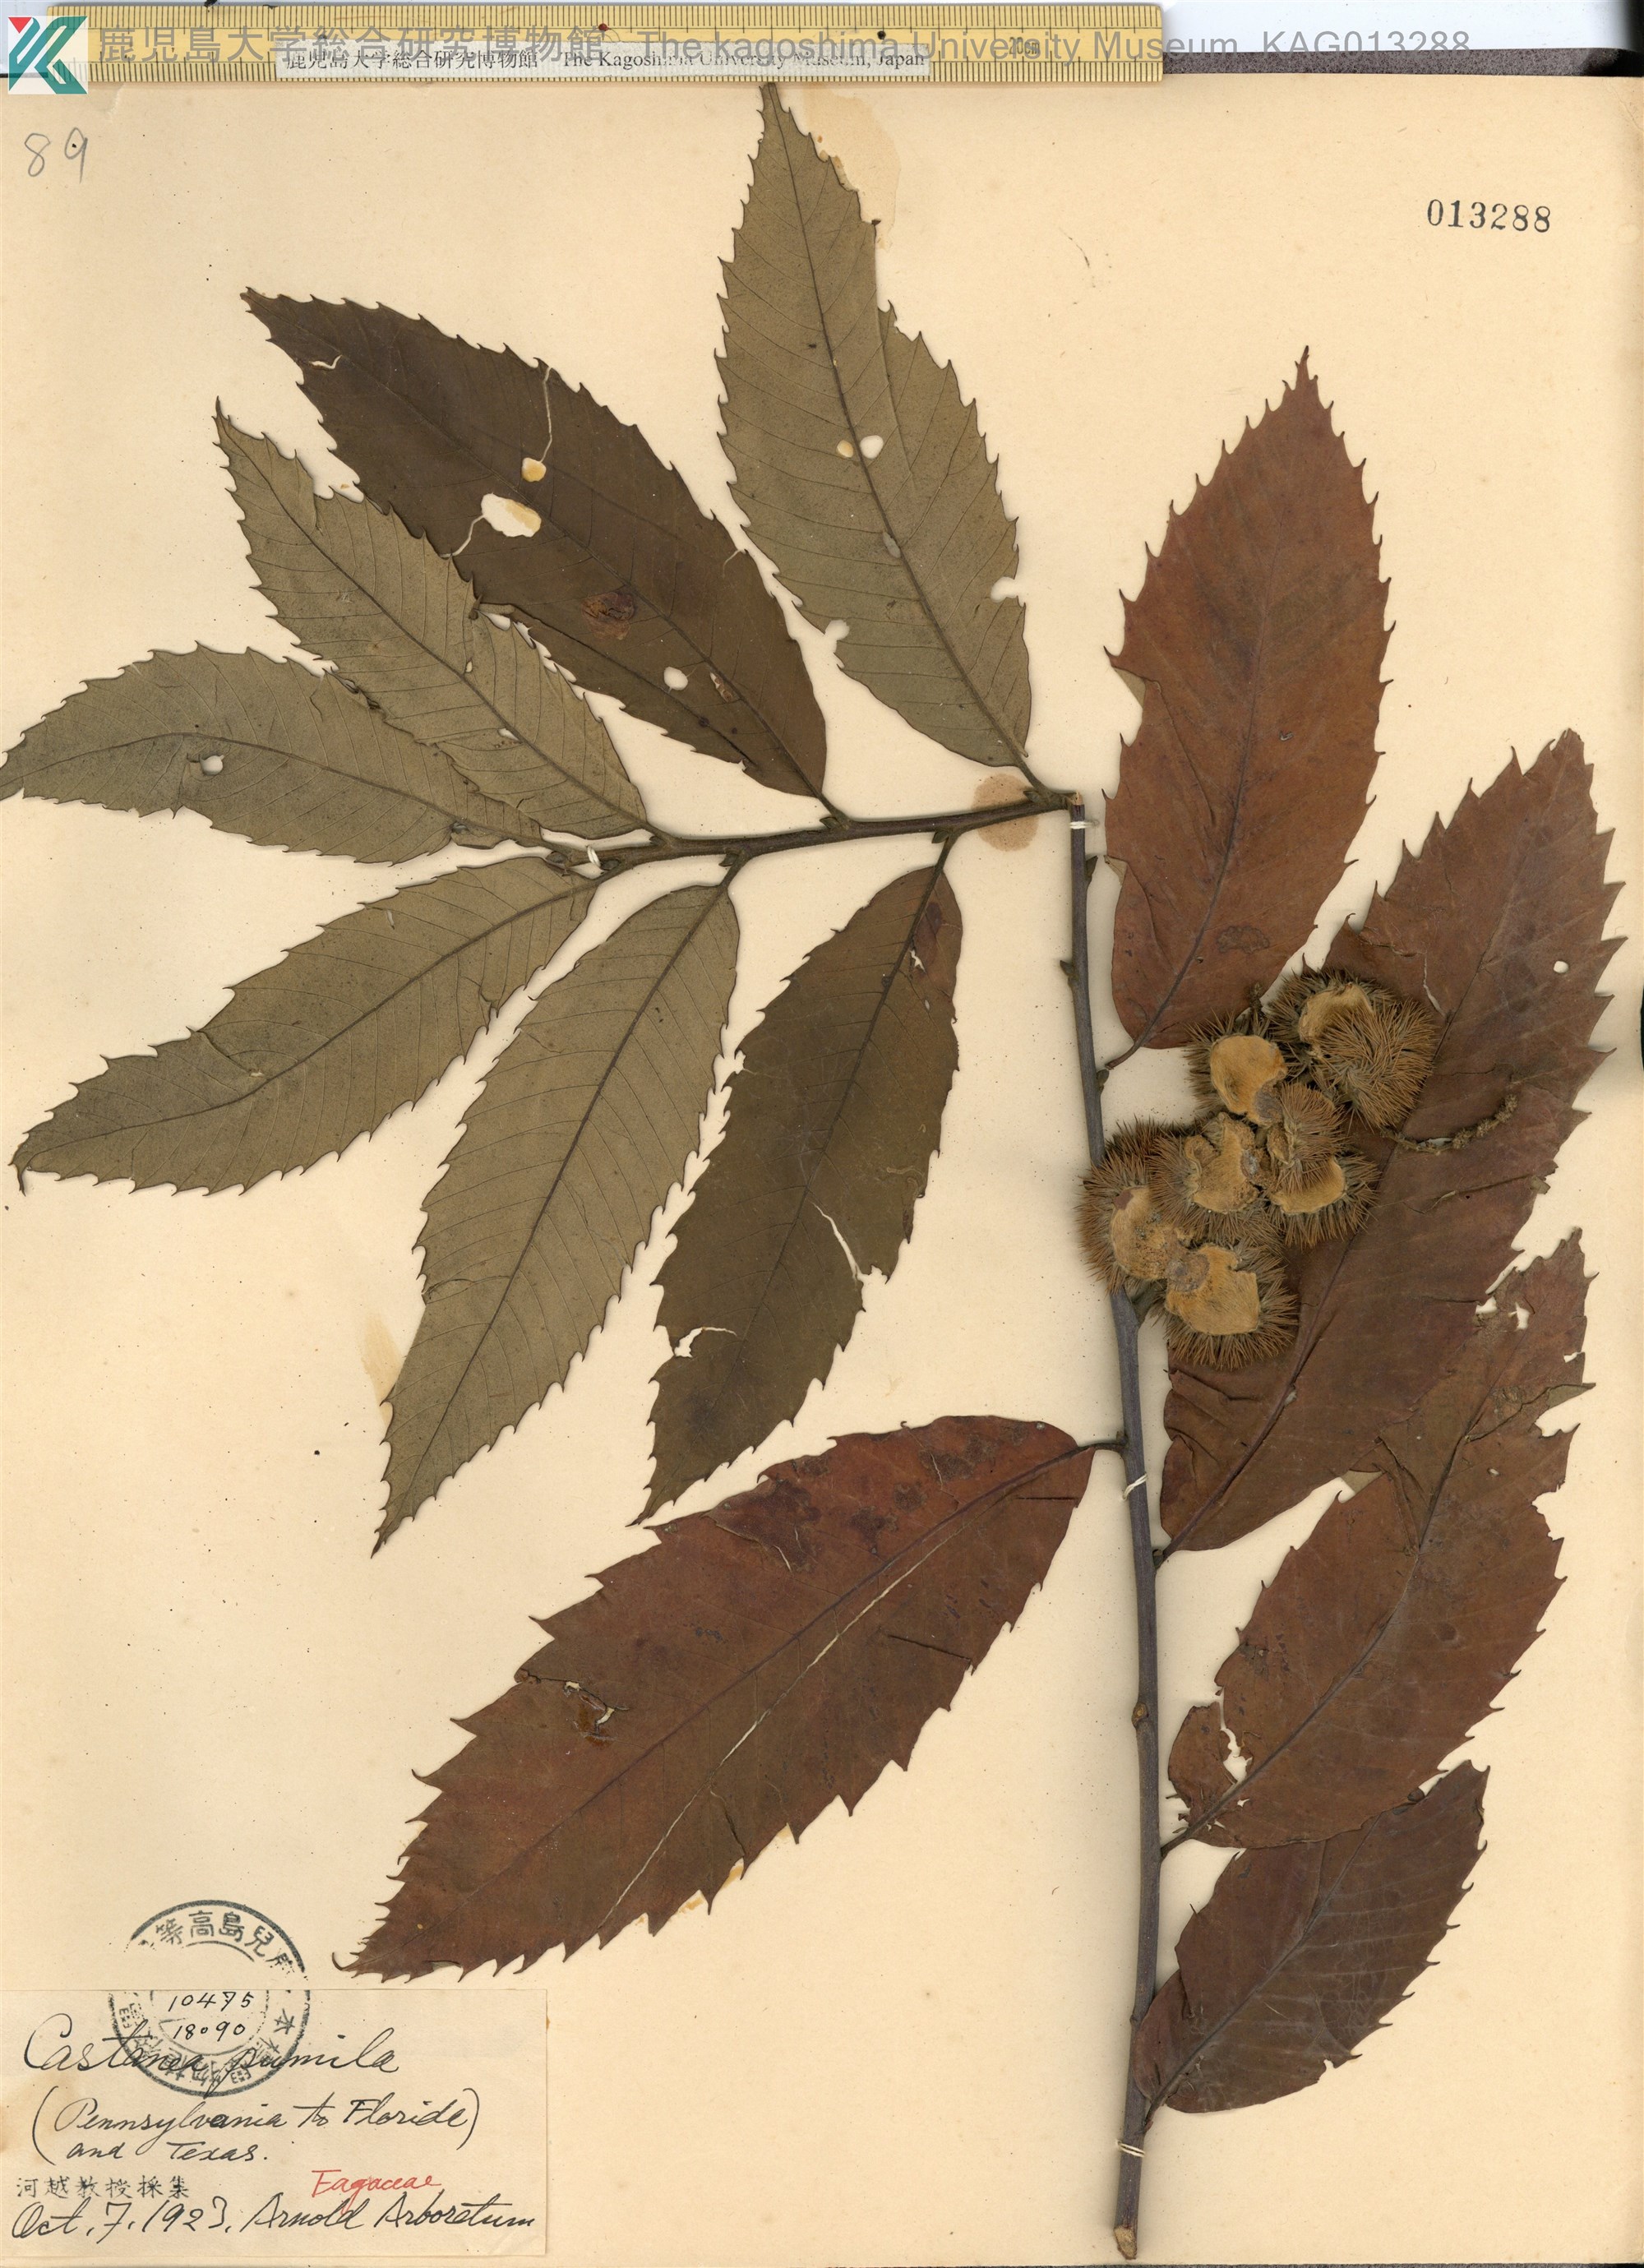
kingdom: Plantae
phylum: Tracheophyta
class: Magnoliopsida
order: Fagales
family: Fagaceae
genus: Castanea
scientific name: Castanea pumila
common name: Chinkapin
